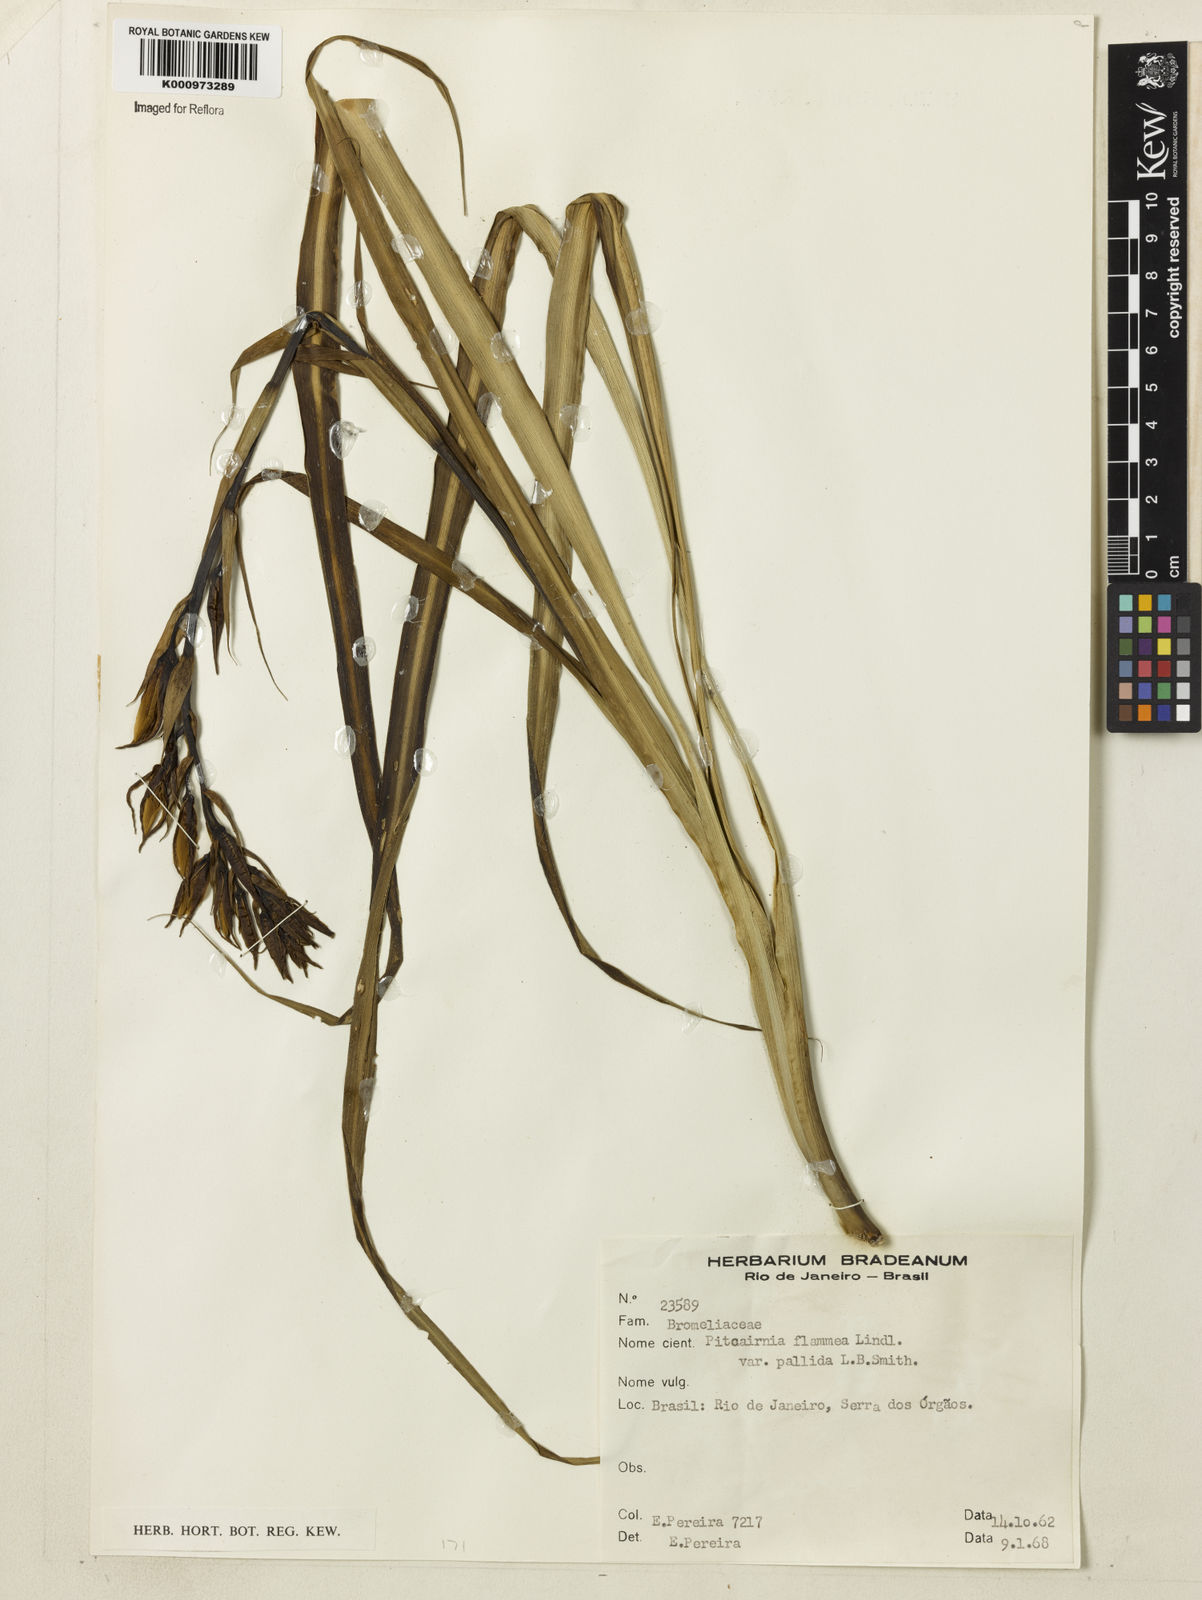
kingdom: Plantae
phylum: Tracheophyta
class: Liliopsida
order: Poales
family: Bromeliaceae
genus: Pitcairnia
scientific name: Pitcairnia flammea
